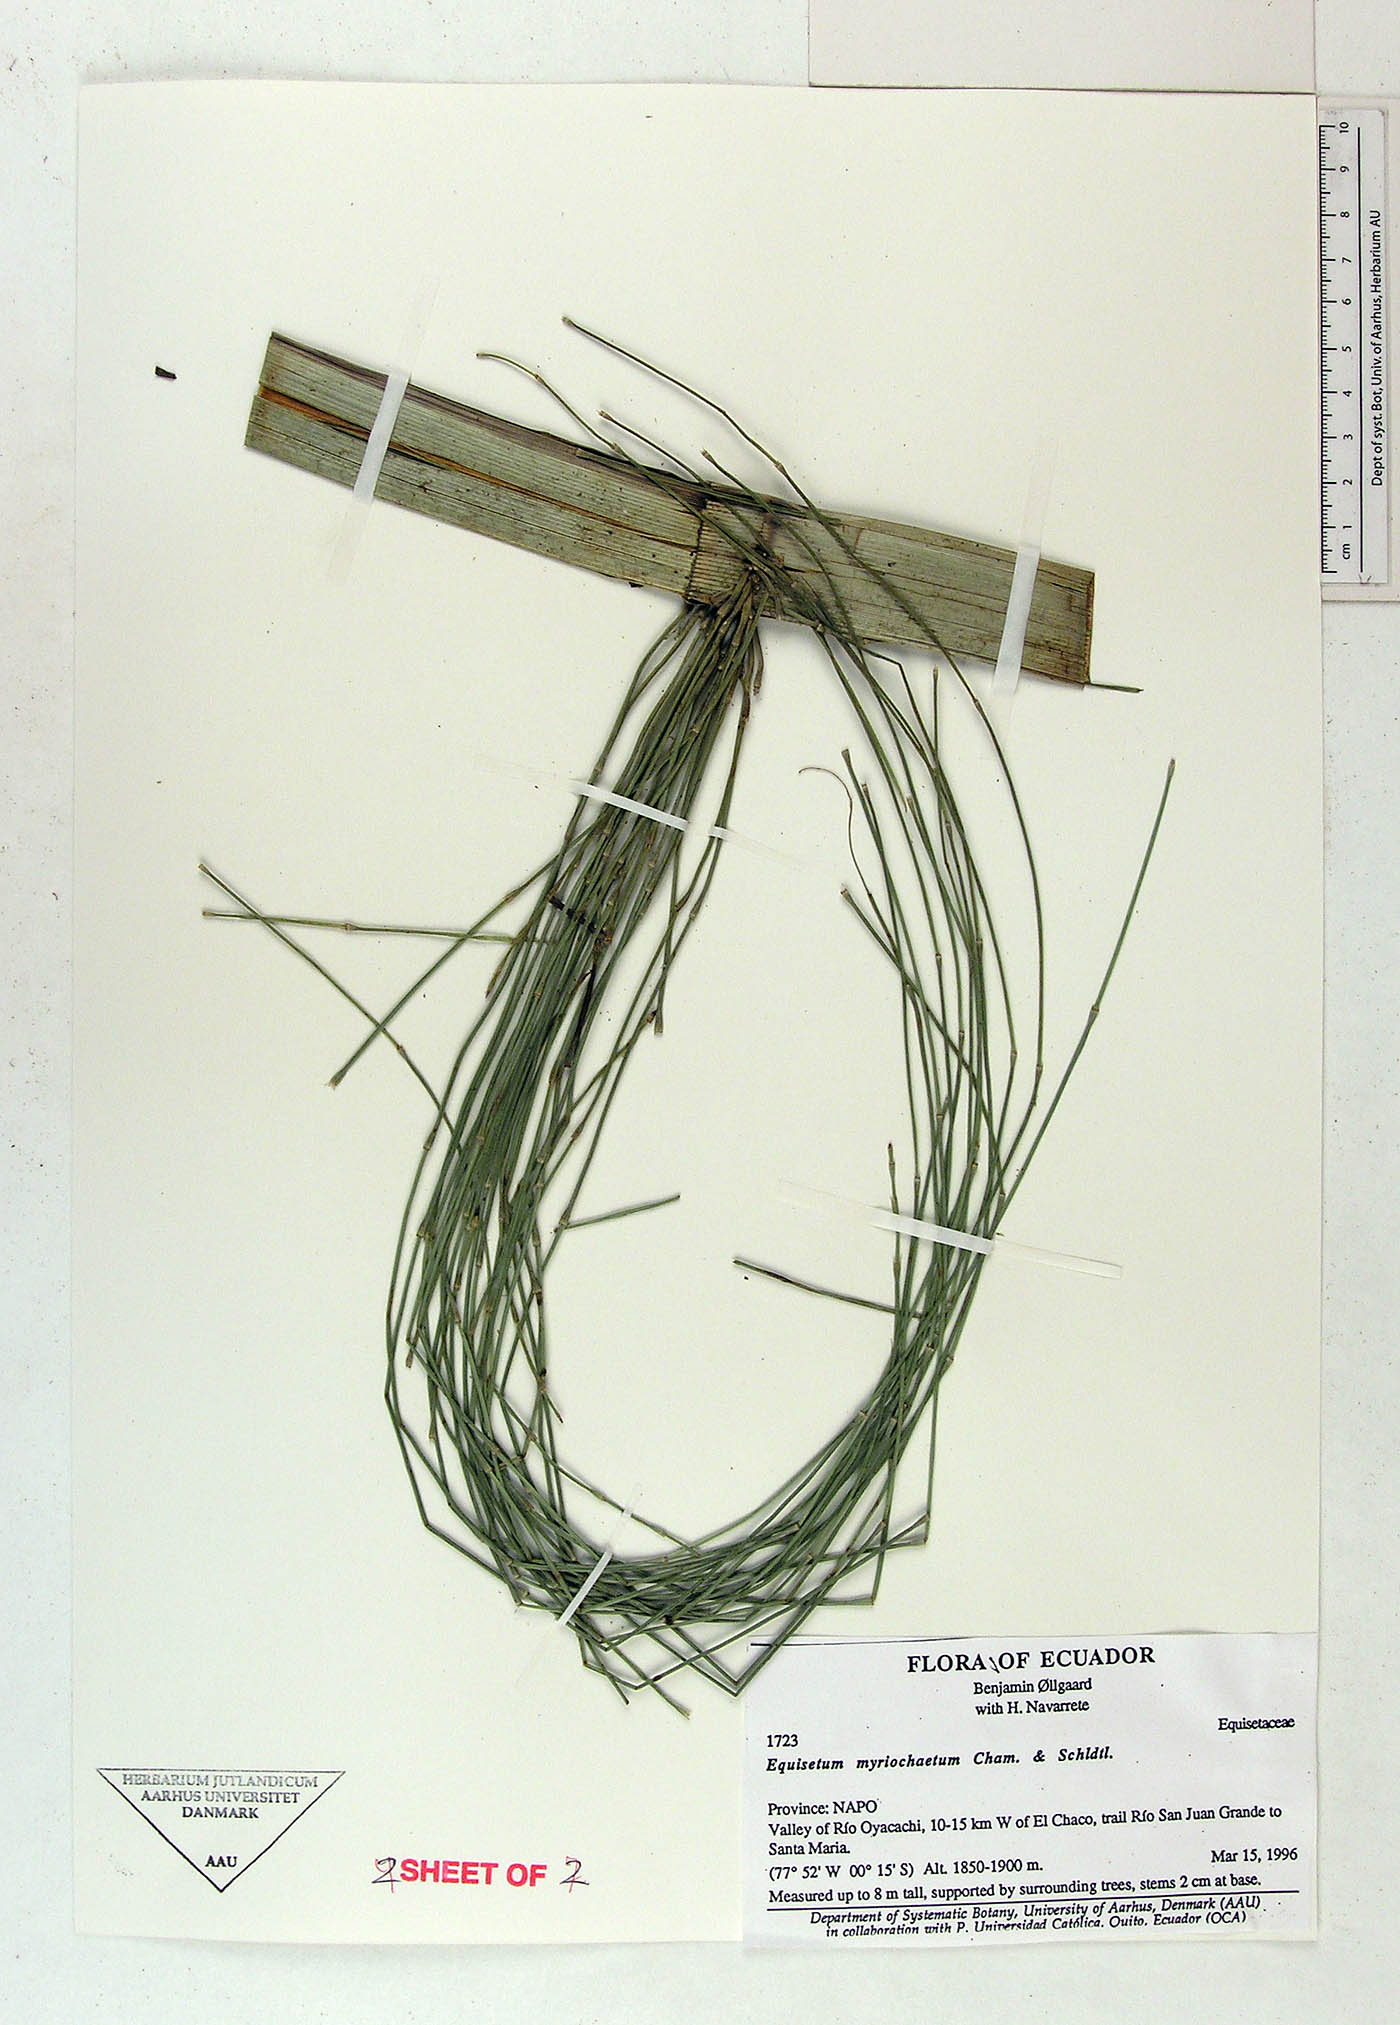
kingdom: Plantae
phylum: Tracheophyta
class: Polypodiopsida
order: Equisetales
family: Equisetaceae
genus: Equisetum
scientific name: Equisetum myriochaetum
